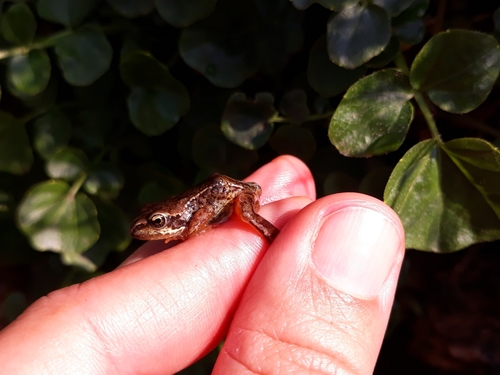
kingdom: Animalia
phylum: Chordata
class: Amphibia
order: Anura
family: Ranidae
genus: Rana
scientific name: Rana temporaria
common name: Common frog
